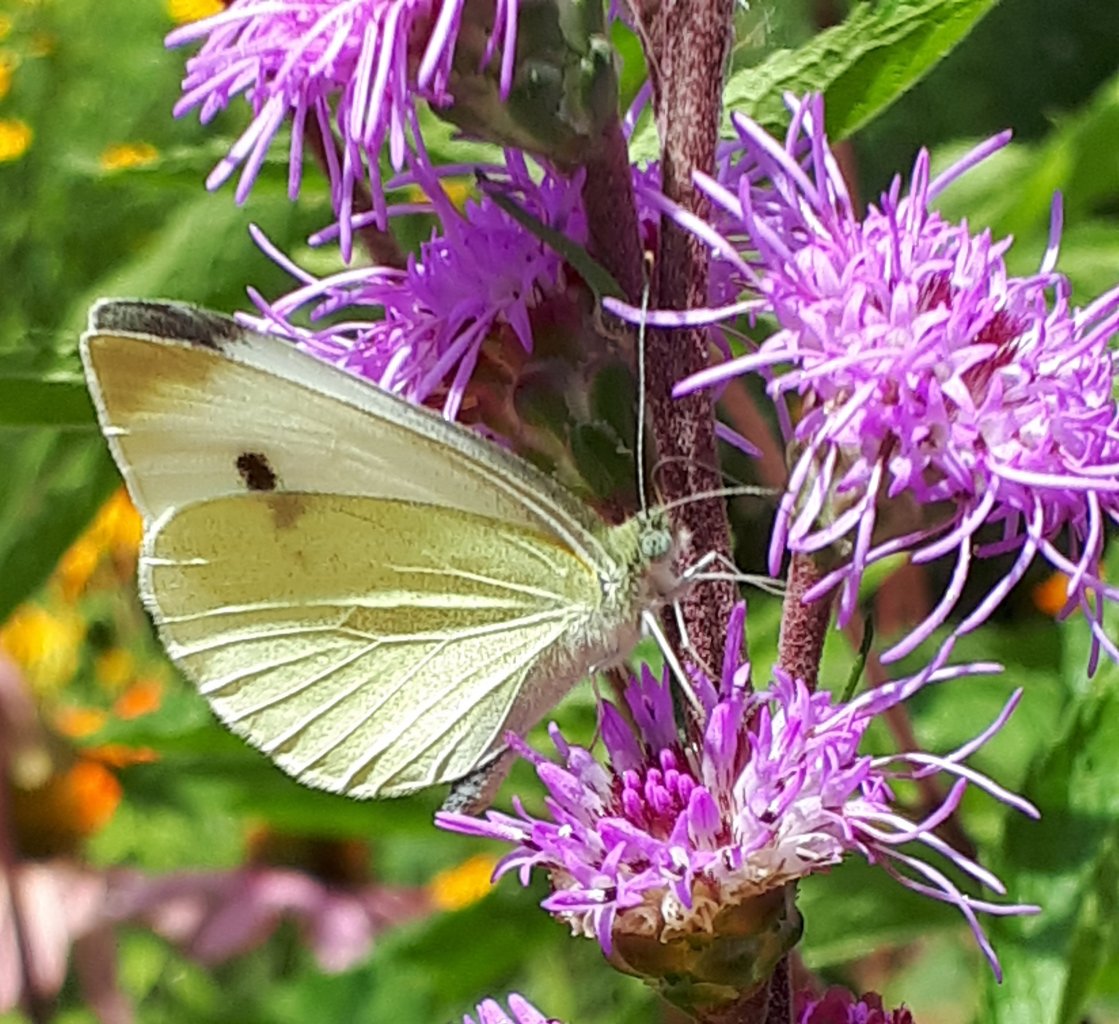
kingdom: Animalia
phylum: Arthropoda
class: Insecta
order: Lepidoptera
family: Pieridae
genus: Pieris
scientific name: Pieris rapae
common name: Cabbage White
